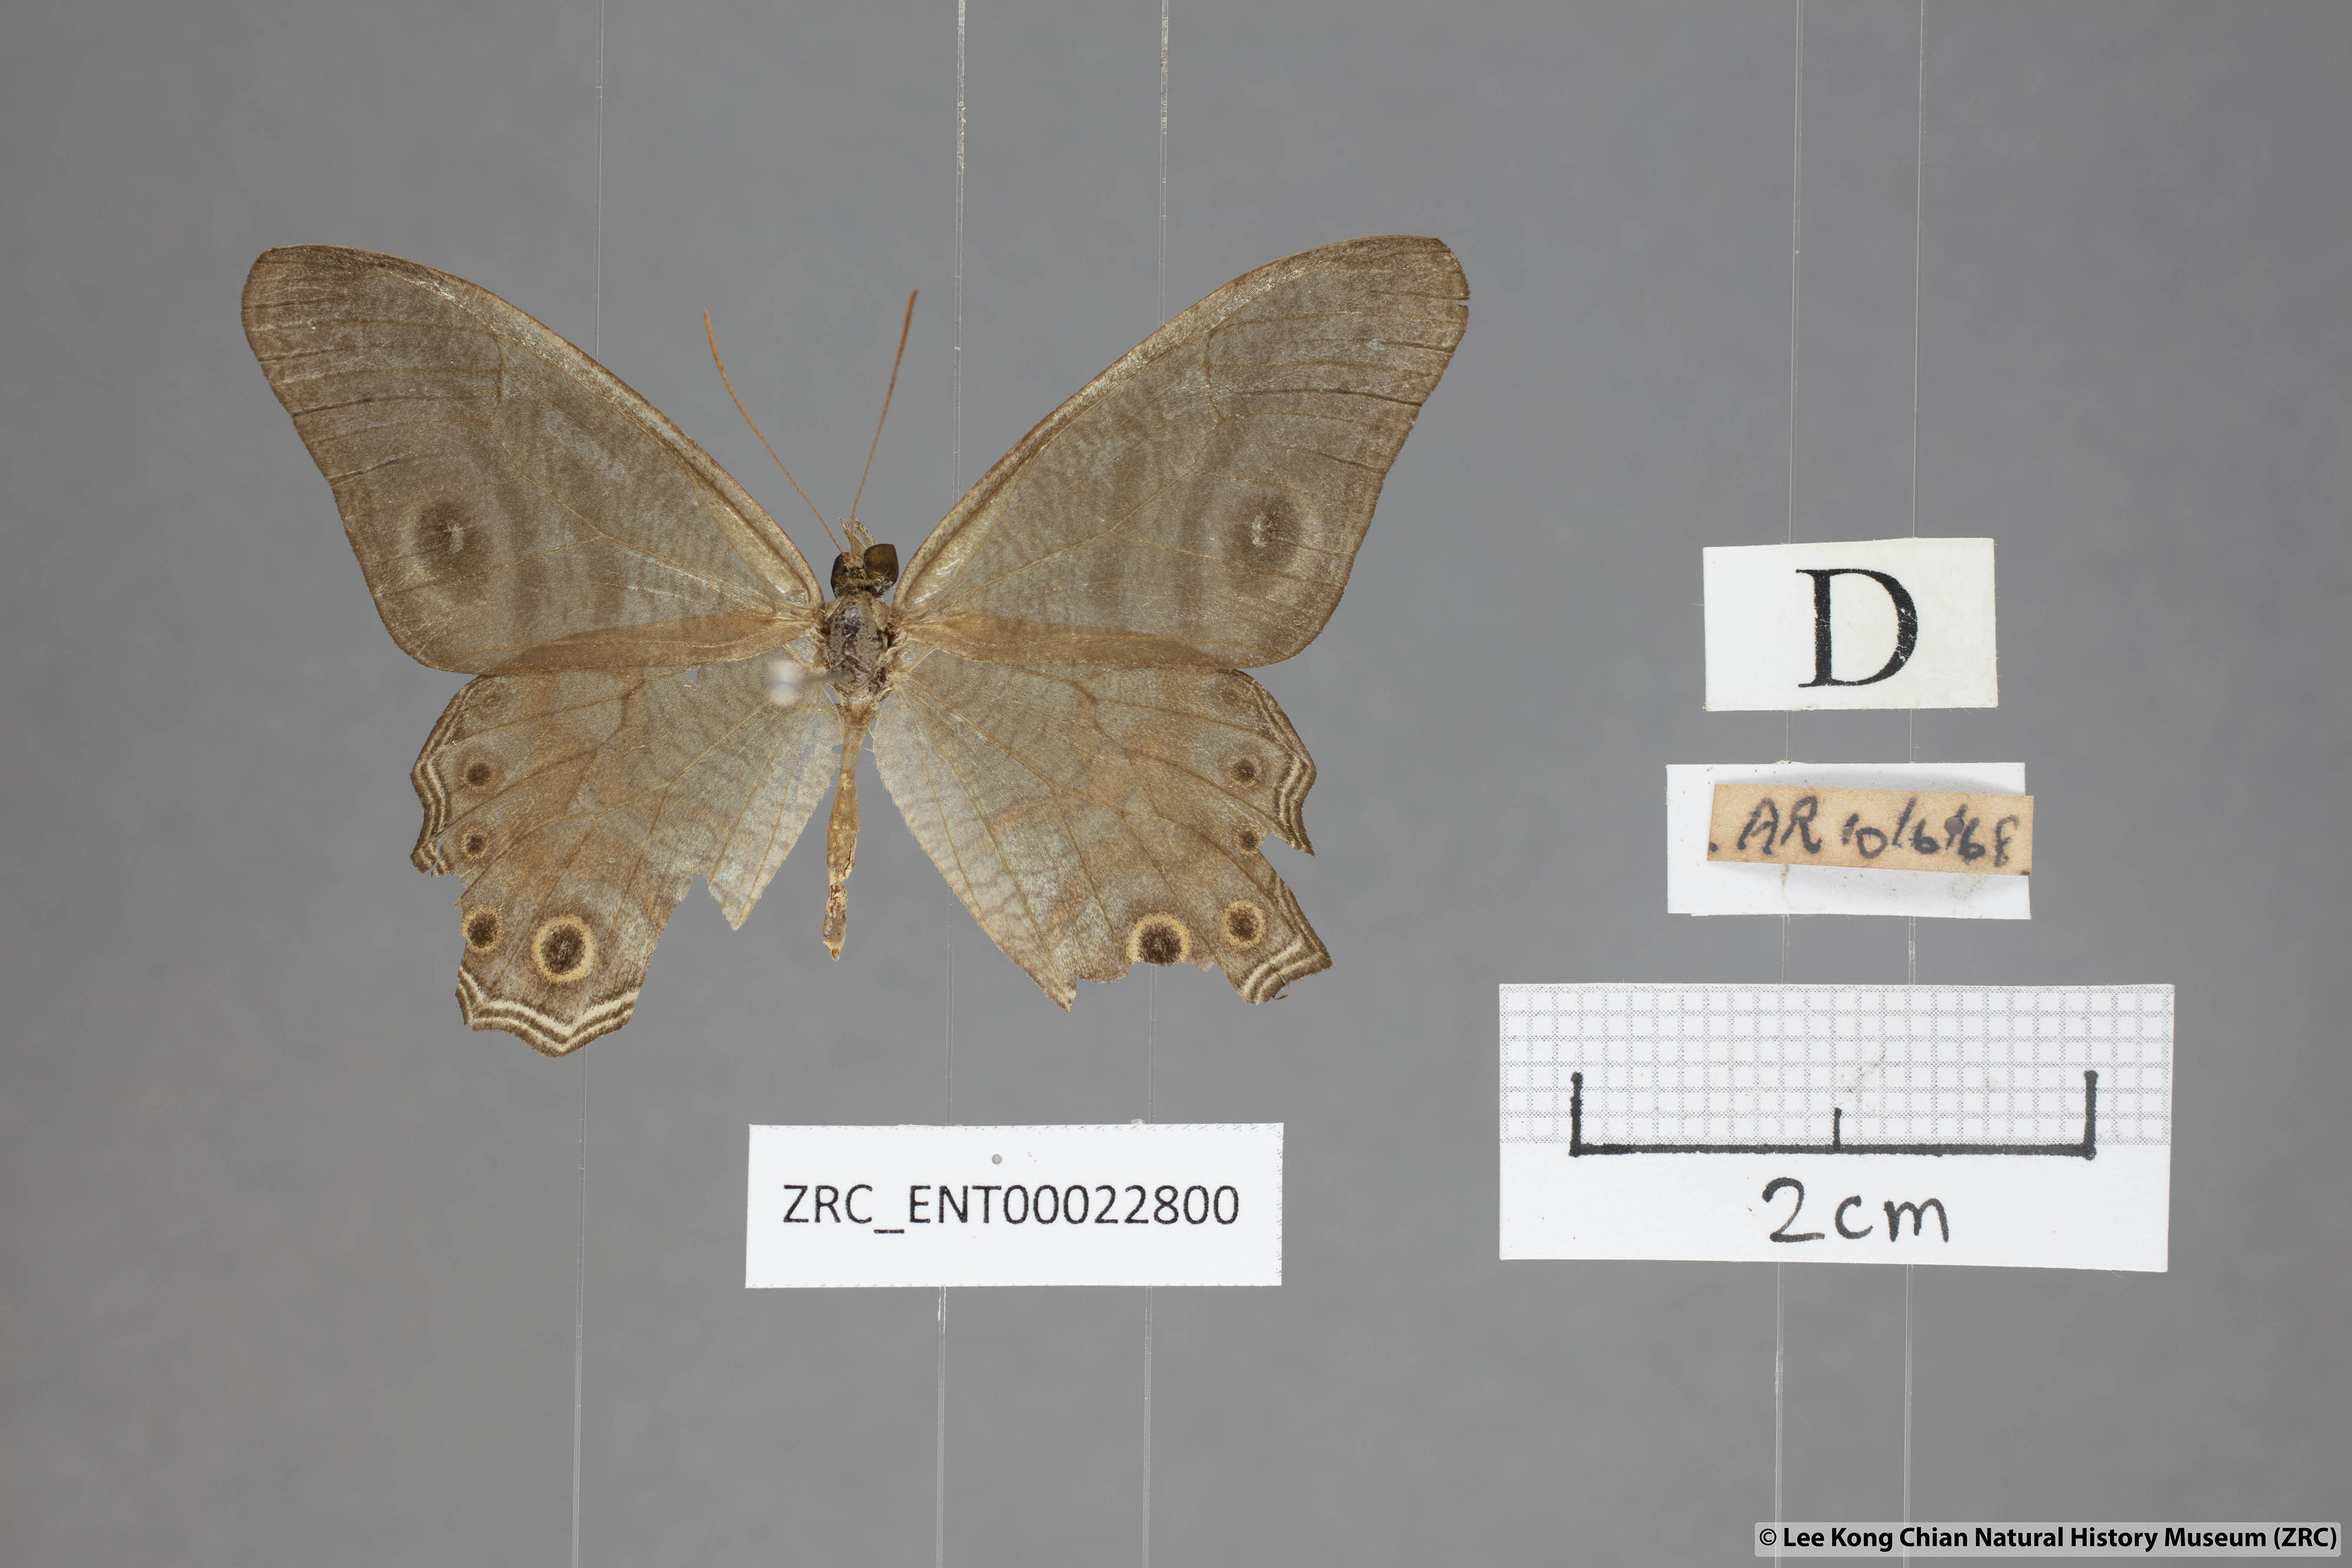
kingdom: Animalia
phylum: Arthropoda
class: Insecta
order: Lepidoptera
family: Nymphalidae
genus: Erites
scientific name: Erites angularis
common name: Angled cyclops
